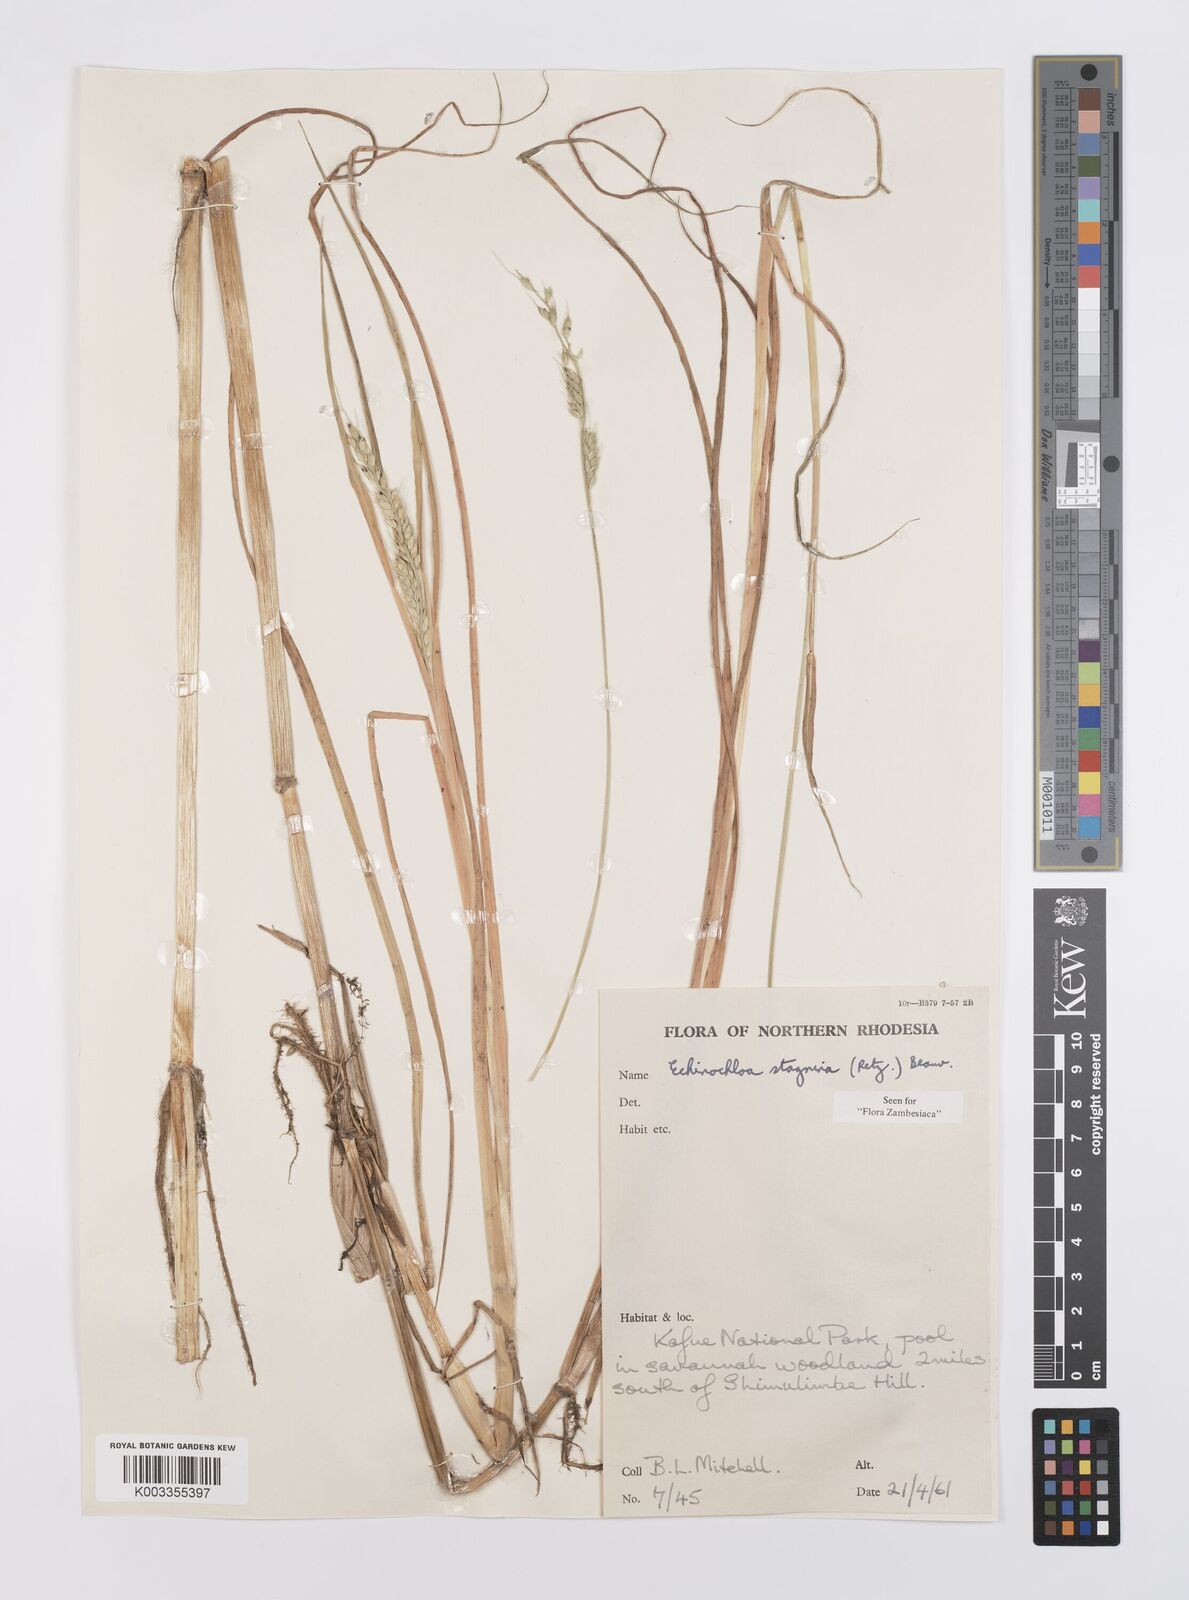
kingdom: Plantae
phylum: Tracheophyta
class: Liliopsida
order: Poales
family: Poaceae
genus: Echinochloa
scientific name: Echinochloa stagnina
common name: Burgu grass
